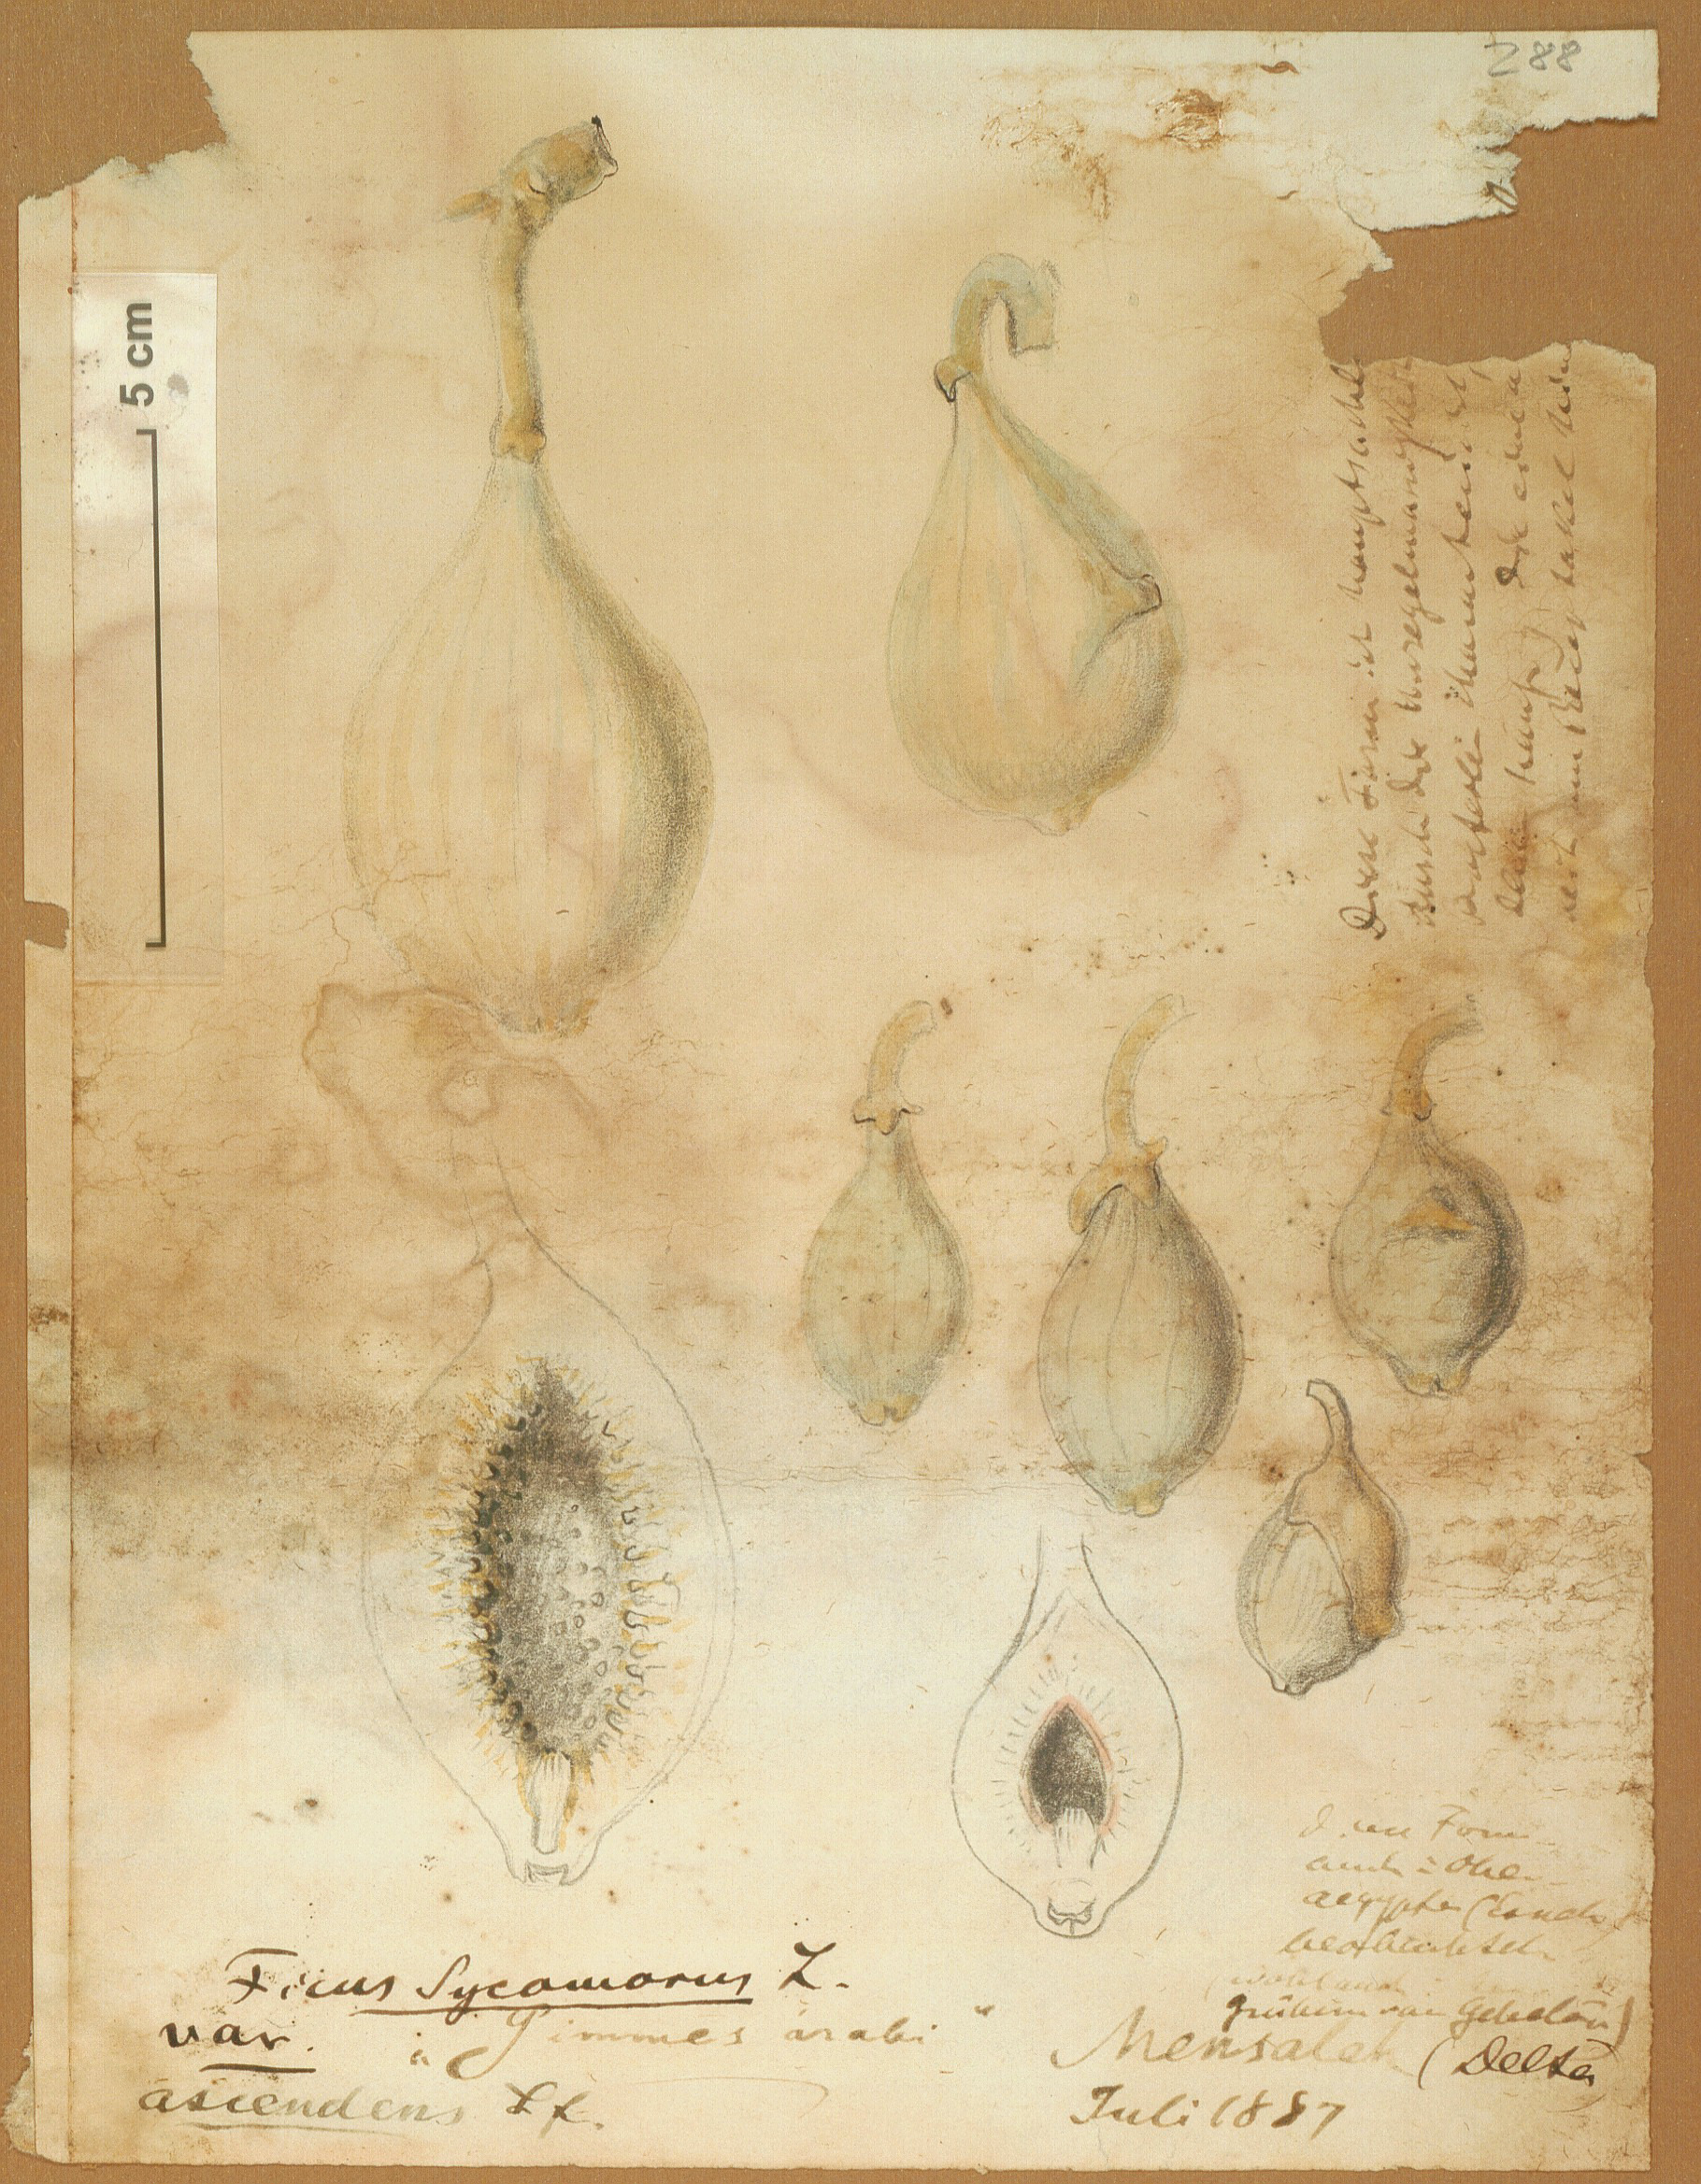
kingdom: Plantae
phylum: Tracheophyta
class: Magnoliopsida
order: Rosales
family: Moraceae
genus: Ficus
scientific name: Ficus sycomorus
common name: Sycomore
